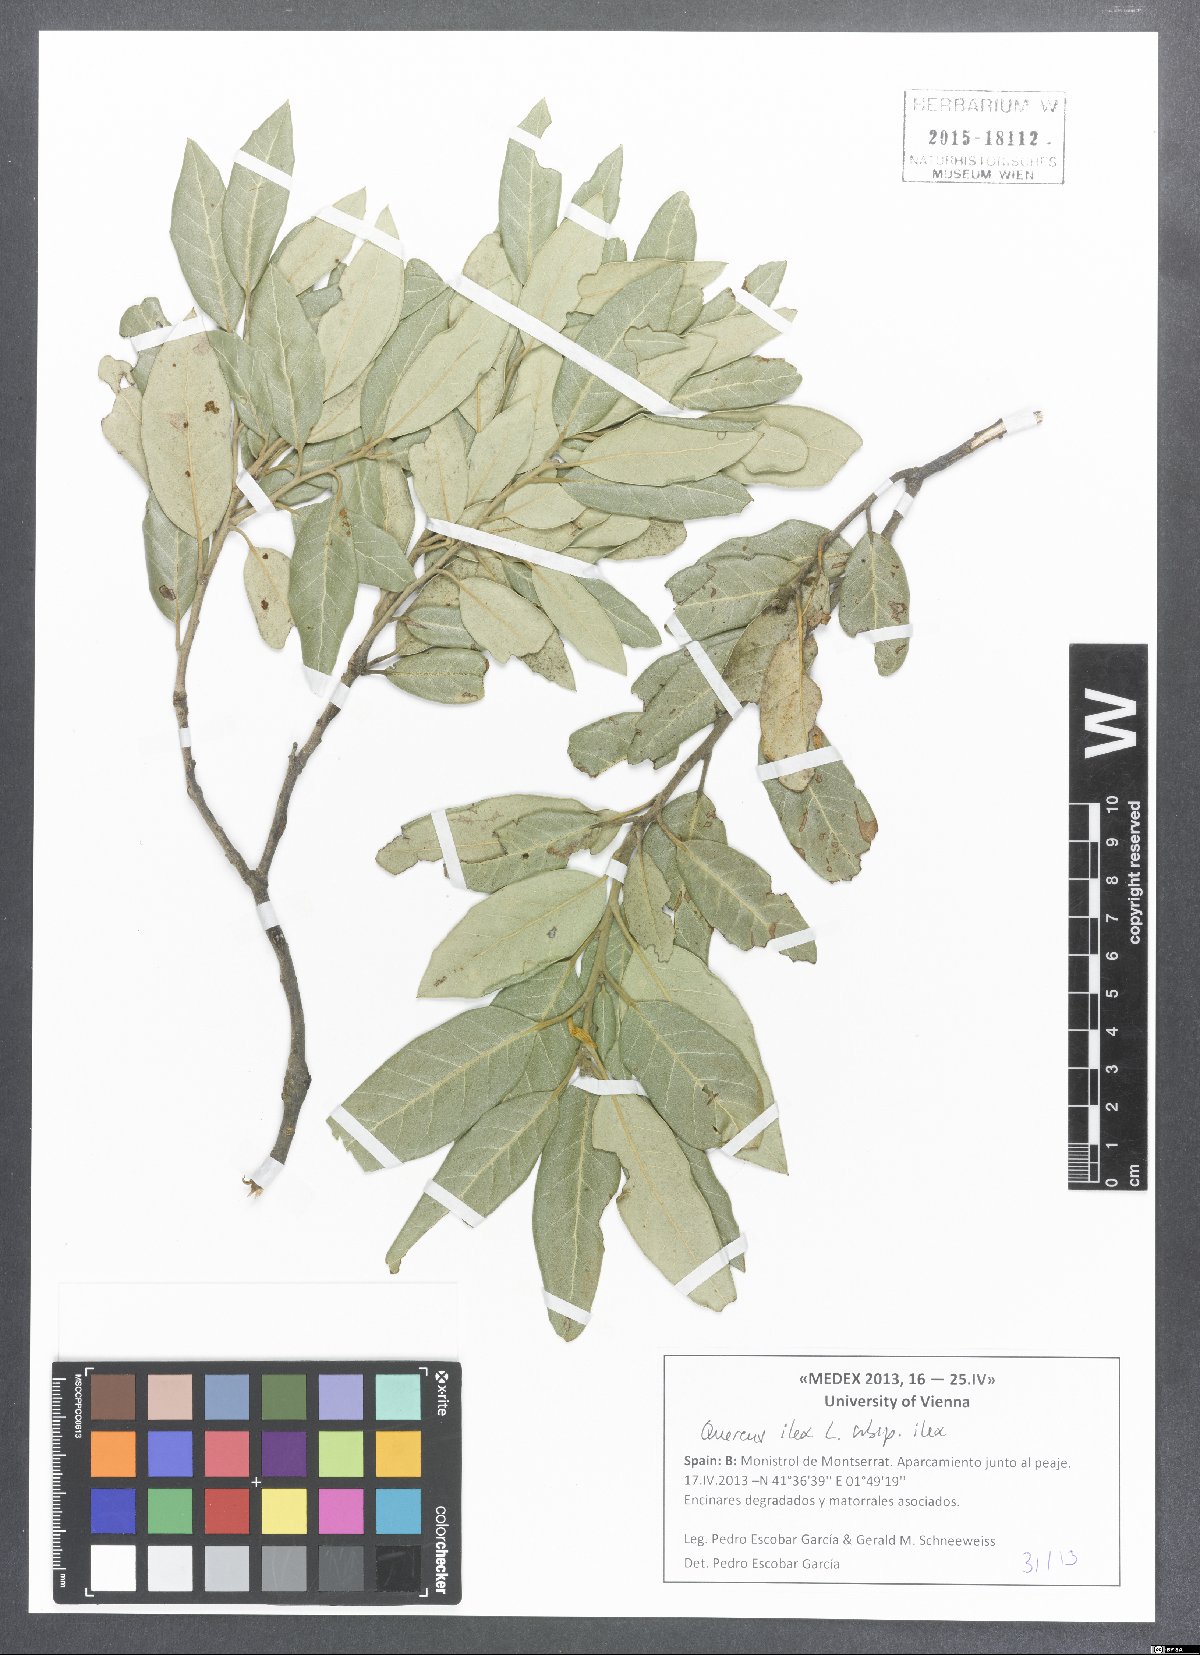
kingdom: Plantae
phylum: Tracheophyta
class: Magnoliopsida
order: Fagales
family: Fagaceae
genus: Quercus
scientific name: Quercus ilex
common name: Evergreen oak
